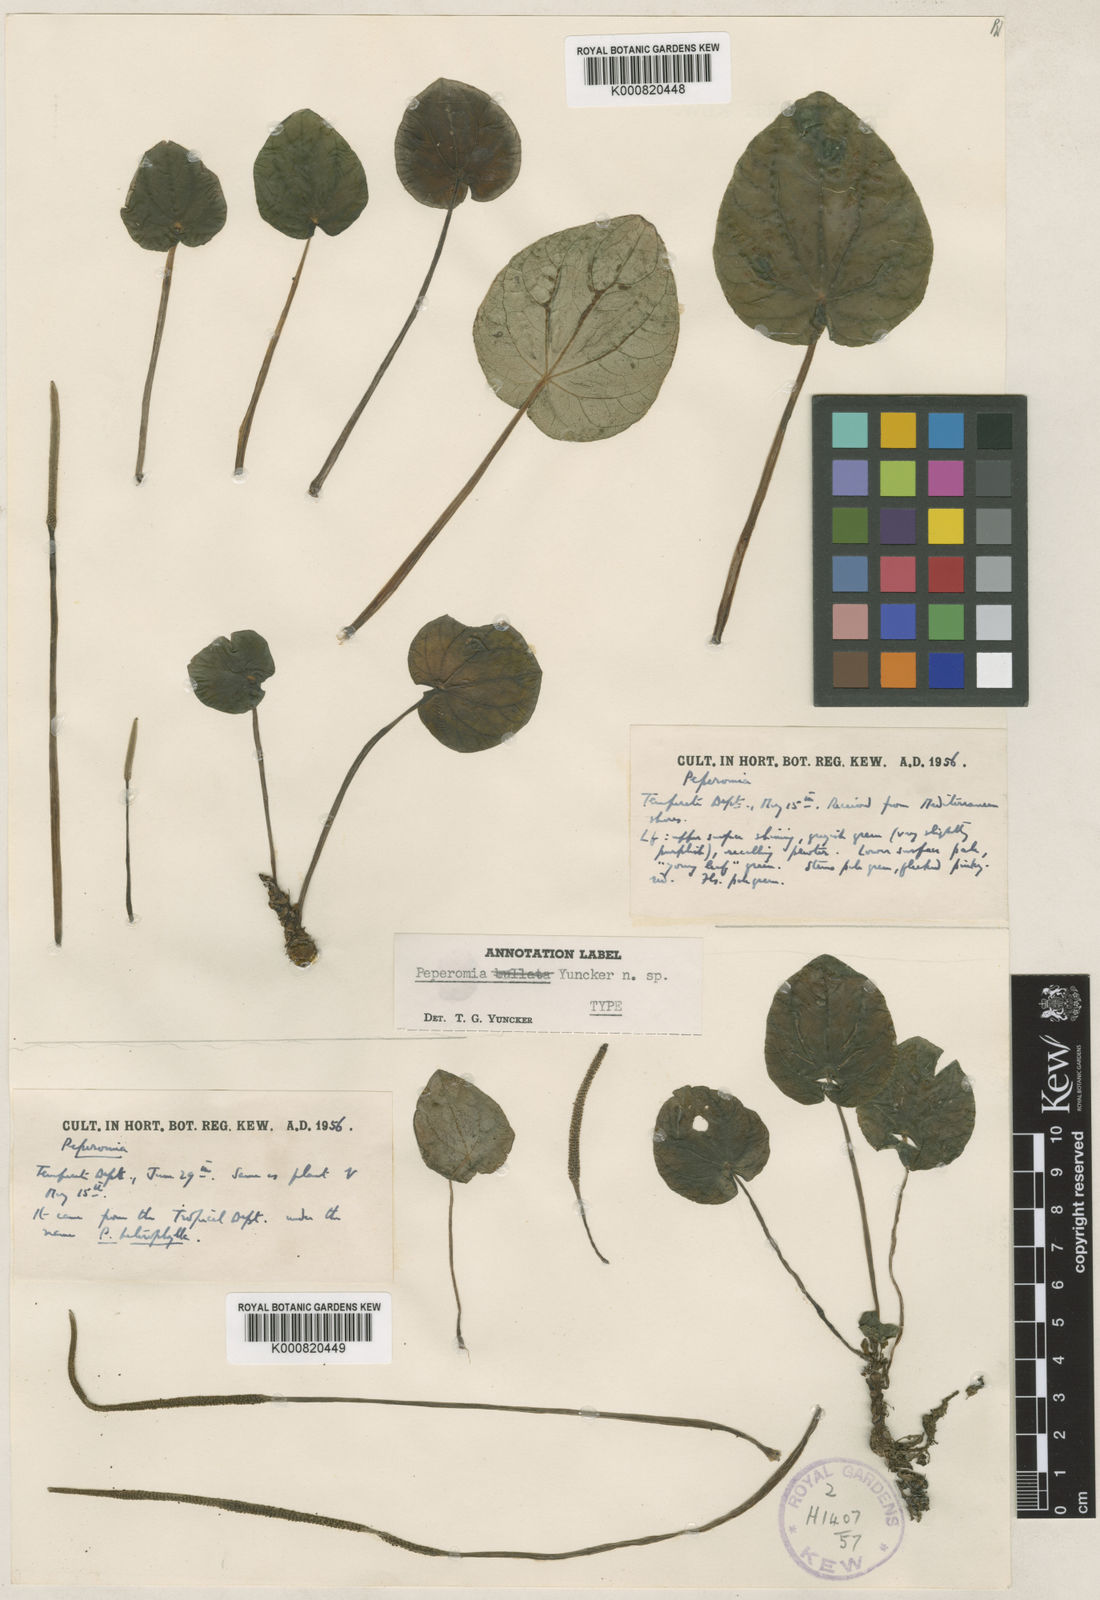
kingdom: Plantae
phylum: Tracheophyta
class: Magnoliopsida
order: Piperales
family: Piperaceae
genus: Peperomia
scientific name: Peperomia griseoargentea
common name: Platinum pepper
